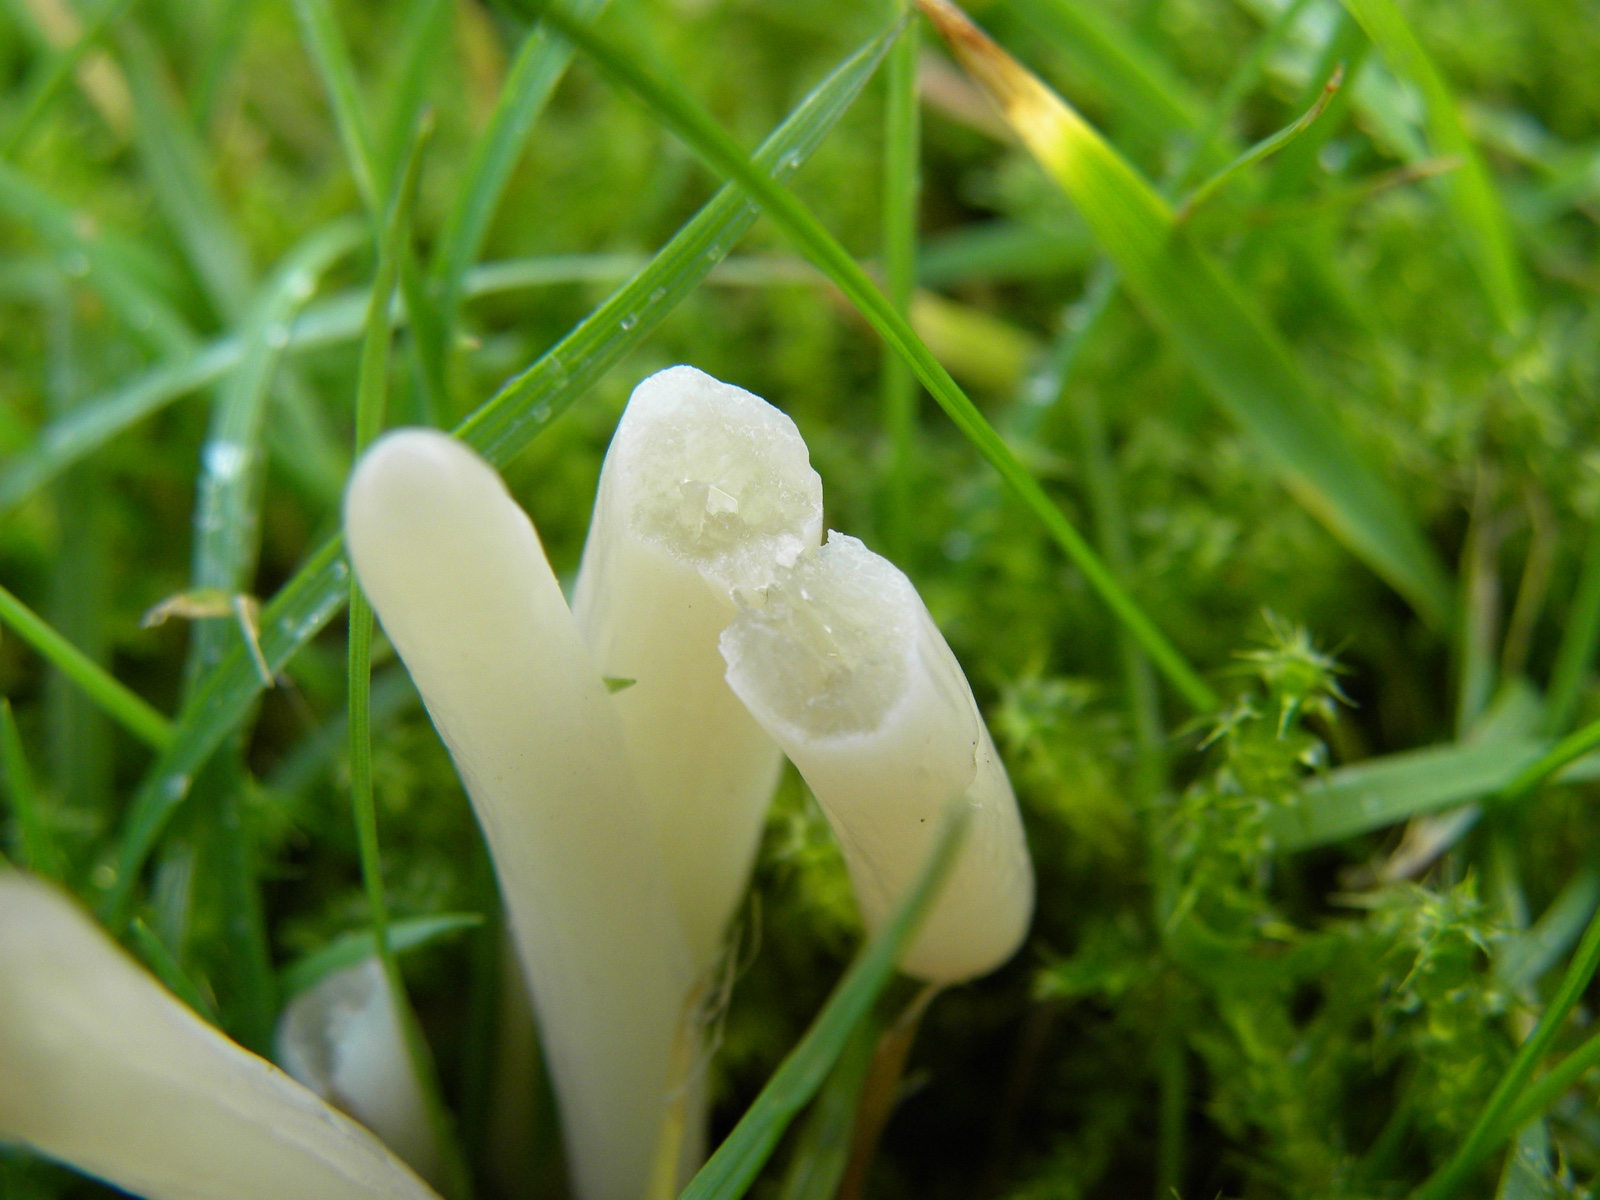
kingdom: Fungi
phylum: Basidiomycota
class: Agaricomycetes
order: Agaricales
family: Clavariaceae
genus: Clavaria
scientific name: Clavaria tenuipes
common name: isabellafarvet køllesvamp
